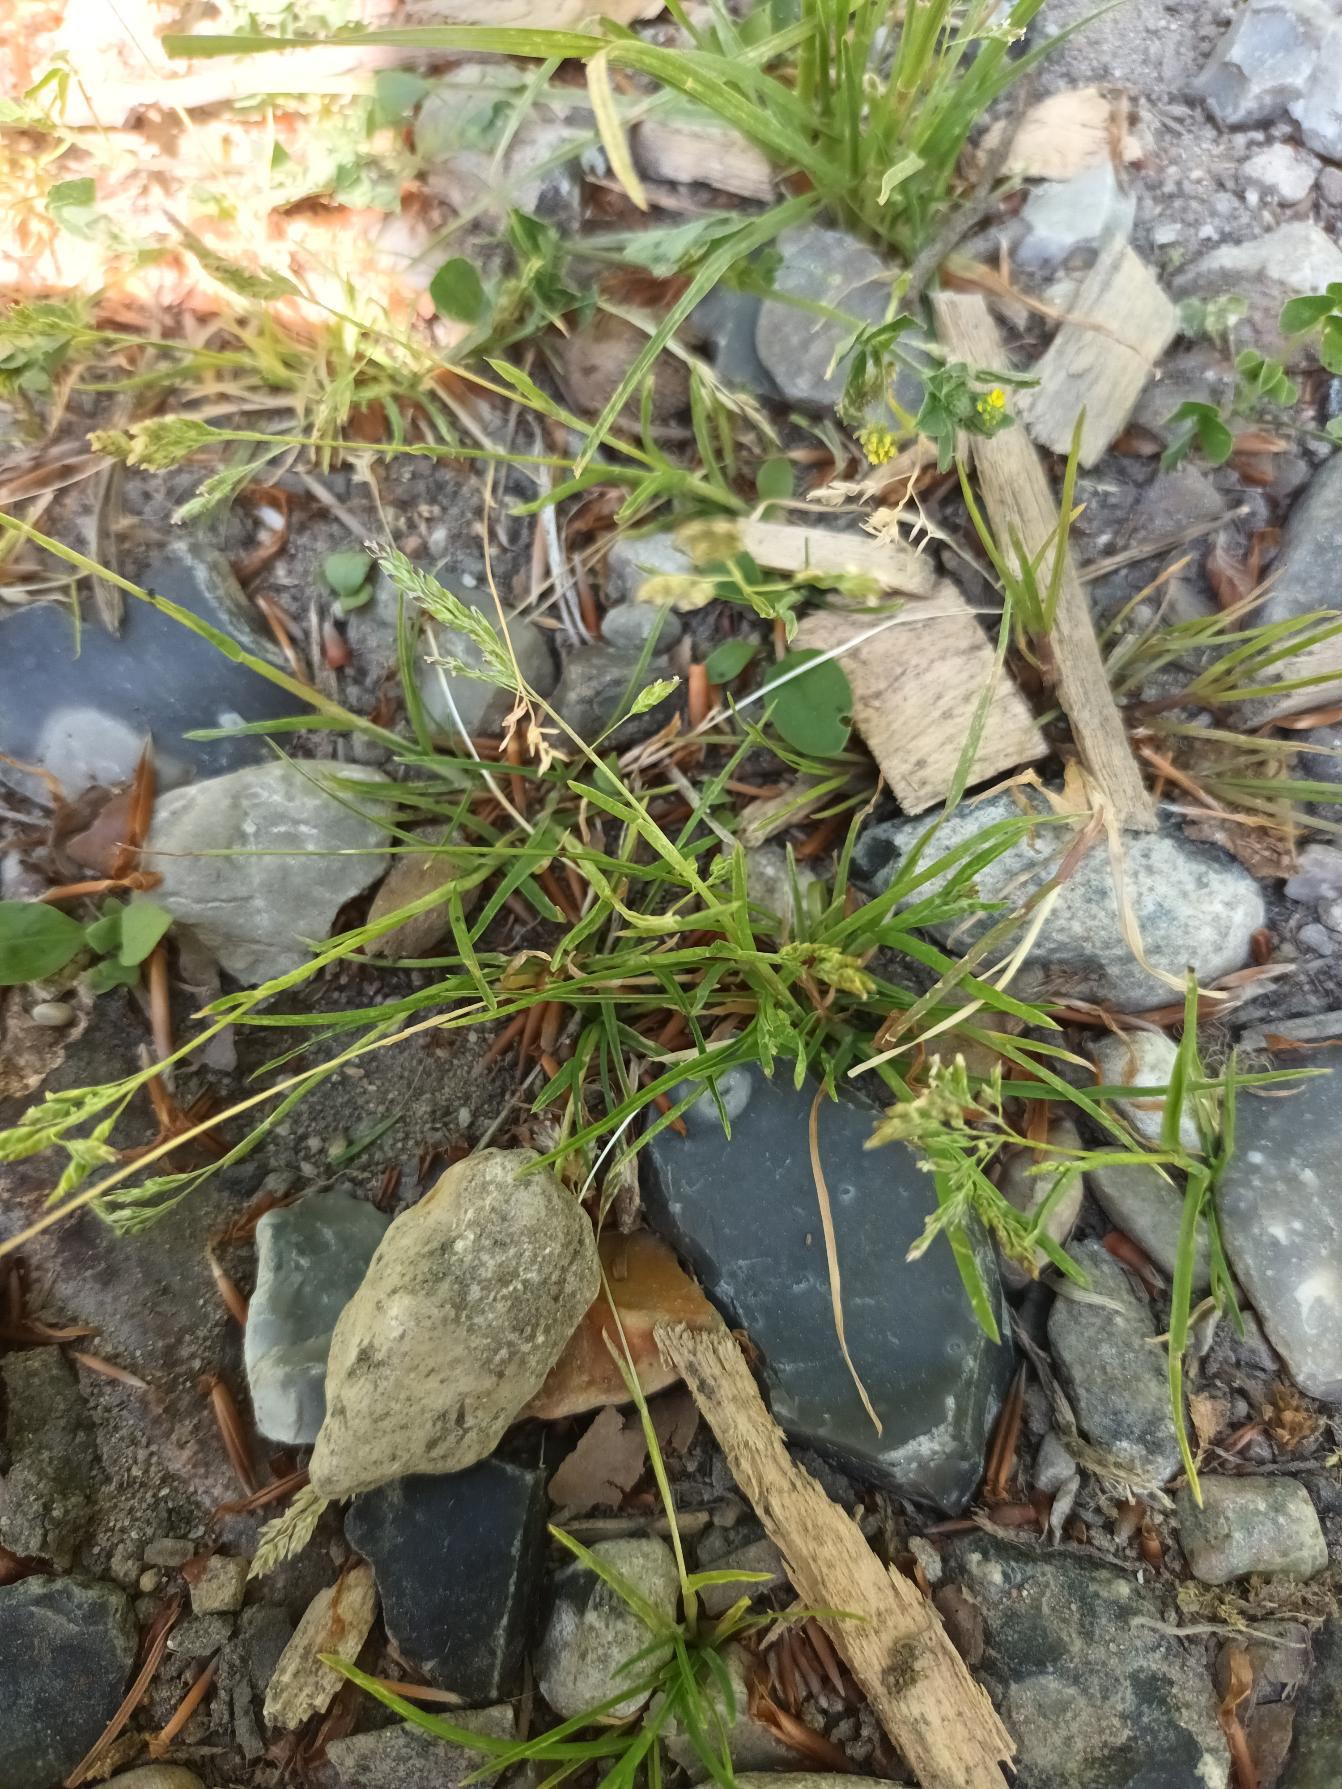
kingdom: Plantae
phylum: Tracheophyta
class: Liliopsida
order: Poales
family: Poaceae
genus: Poa
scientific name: Poa annua
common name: Enårig rapgræs
